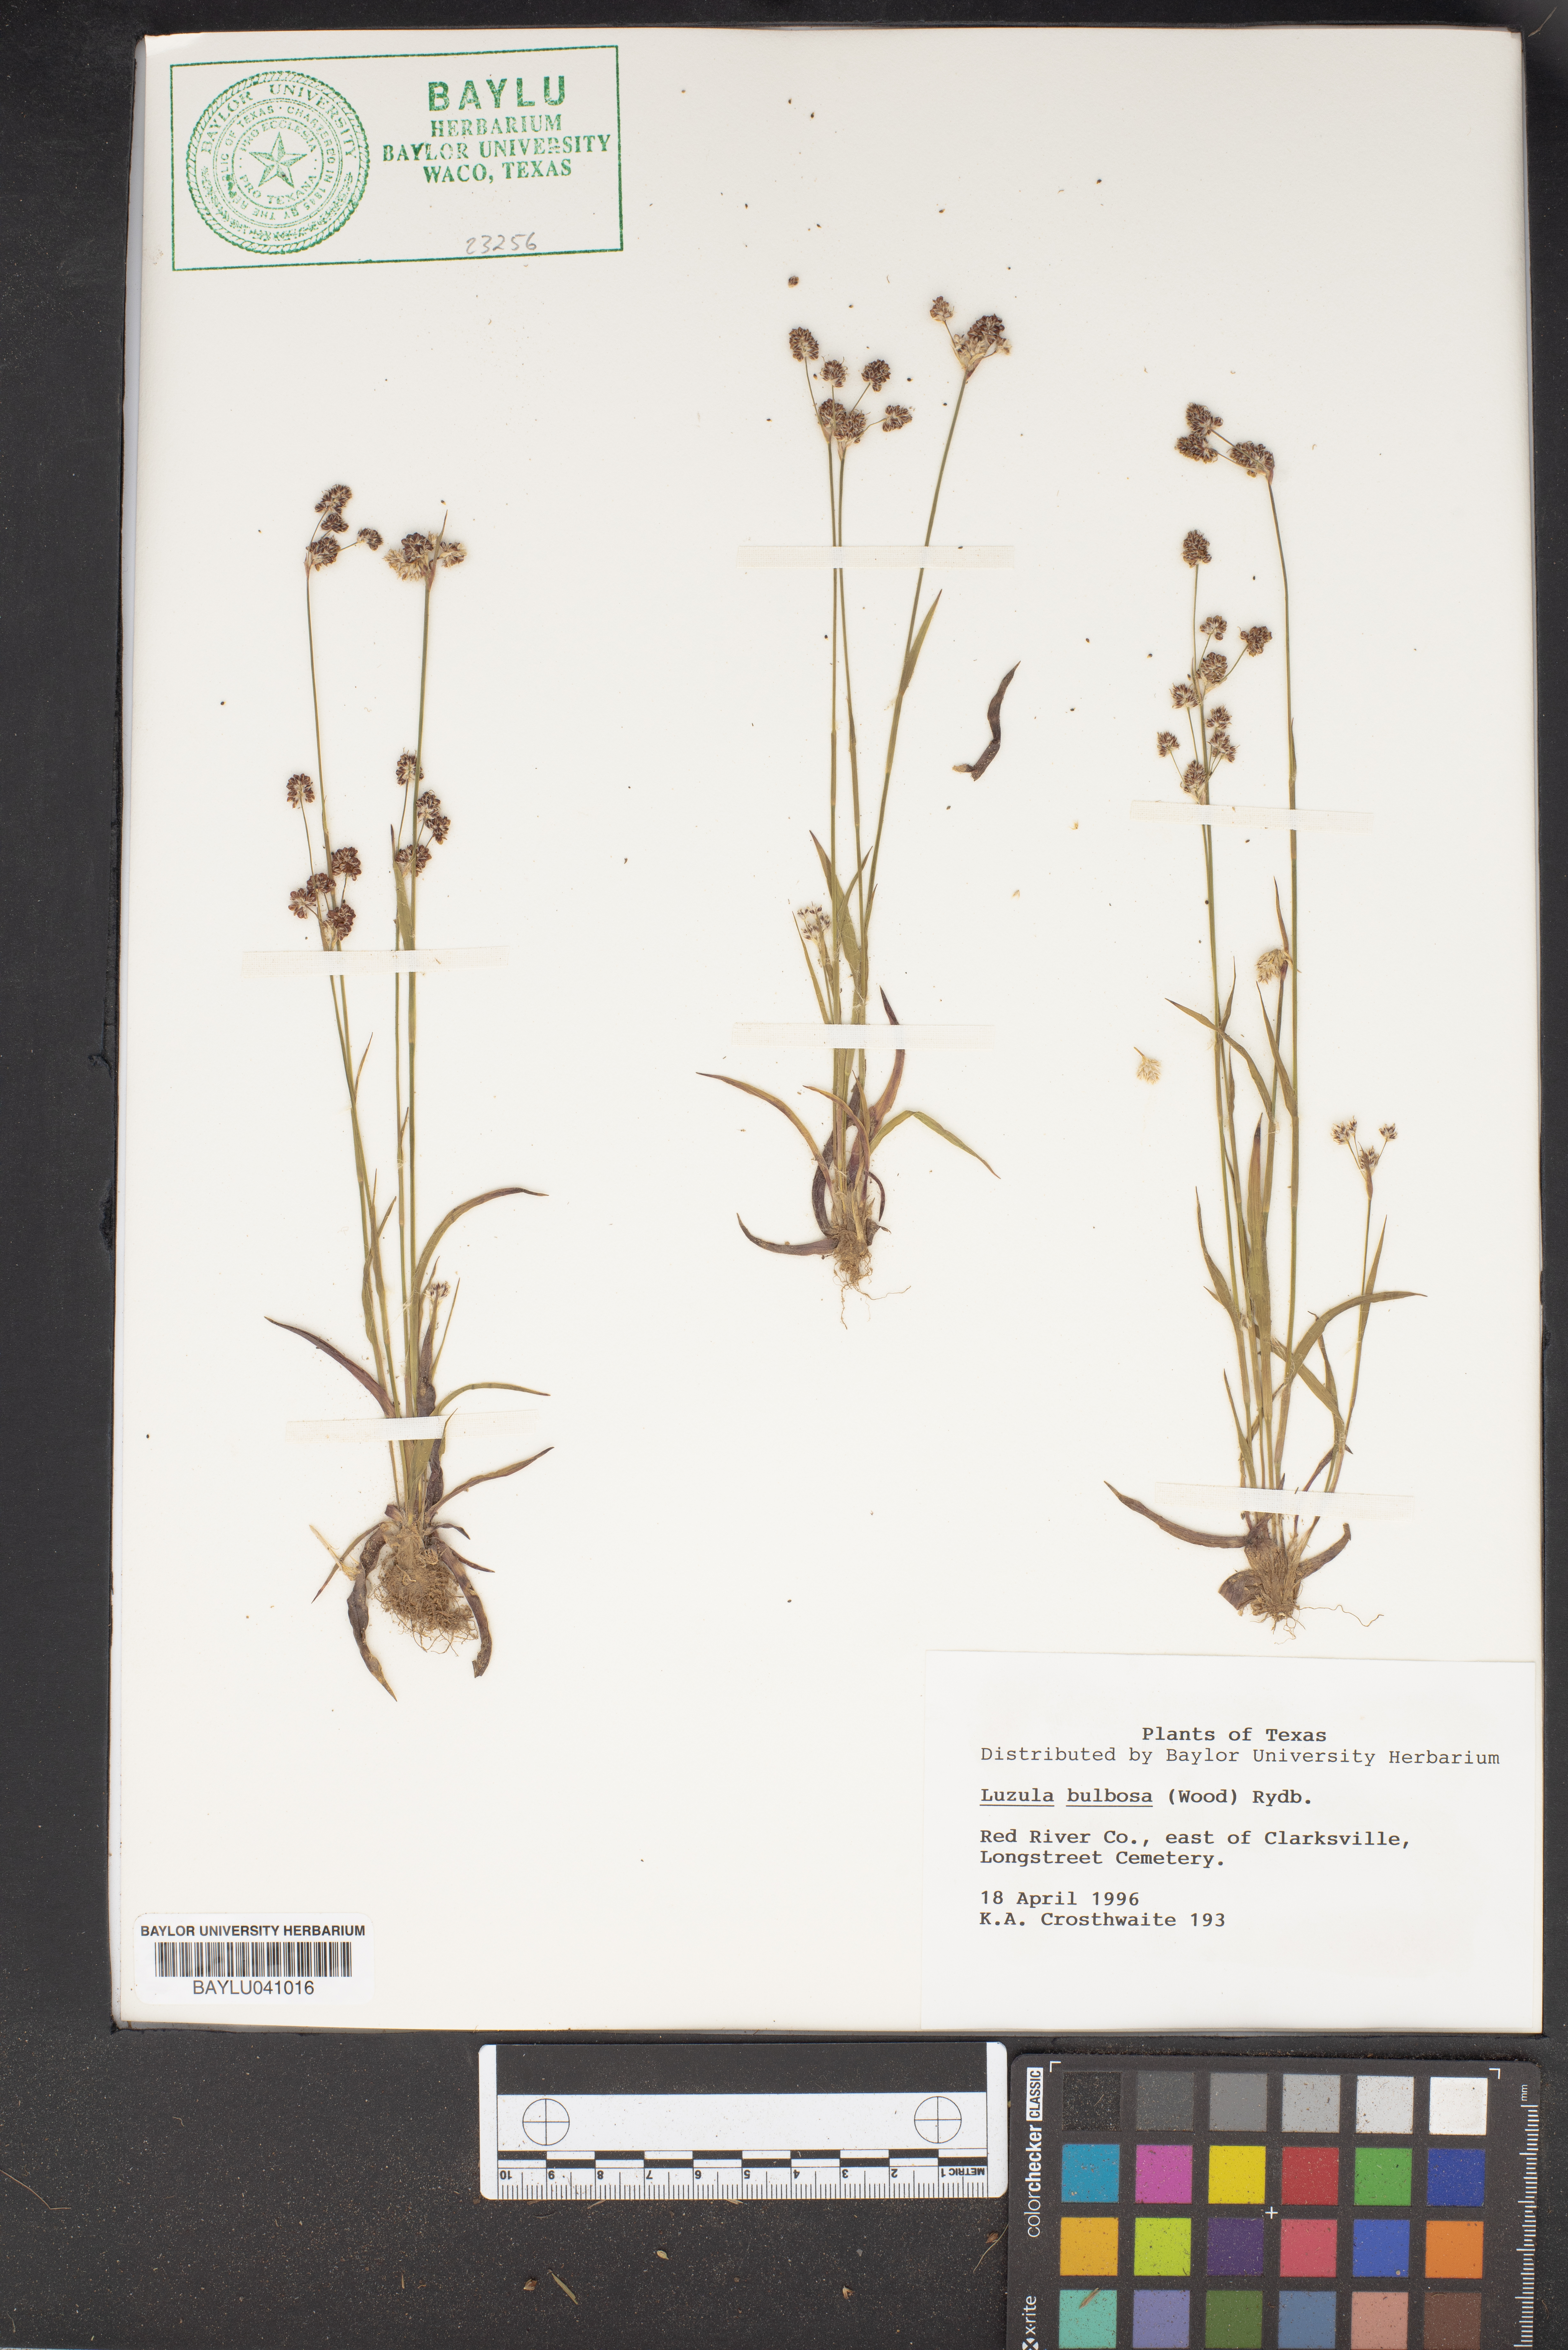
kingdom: Plantae
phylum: Tracheophyta
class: Liliopsida
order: Poales
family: Juncaceae
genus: Luzula
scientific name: Luzula bulbosa
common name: Bulbous woodrush
